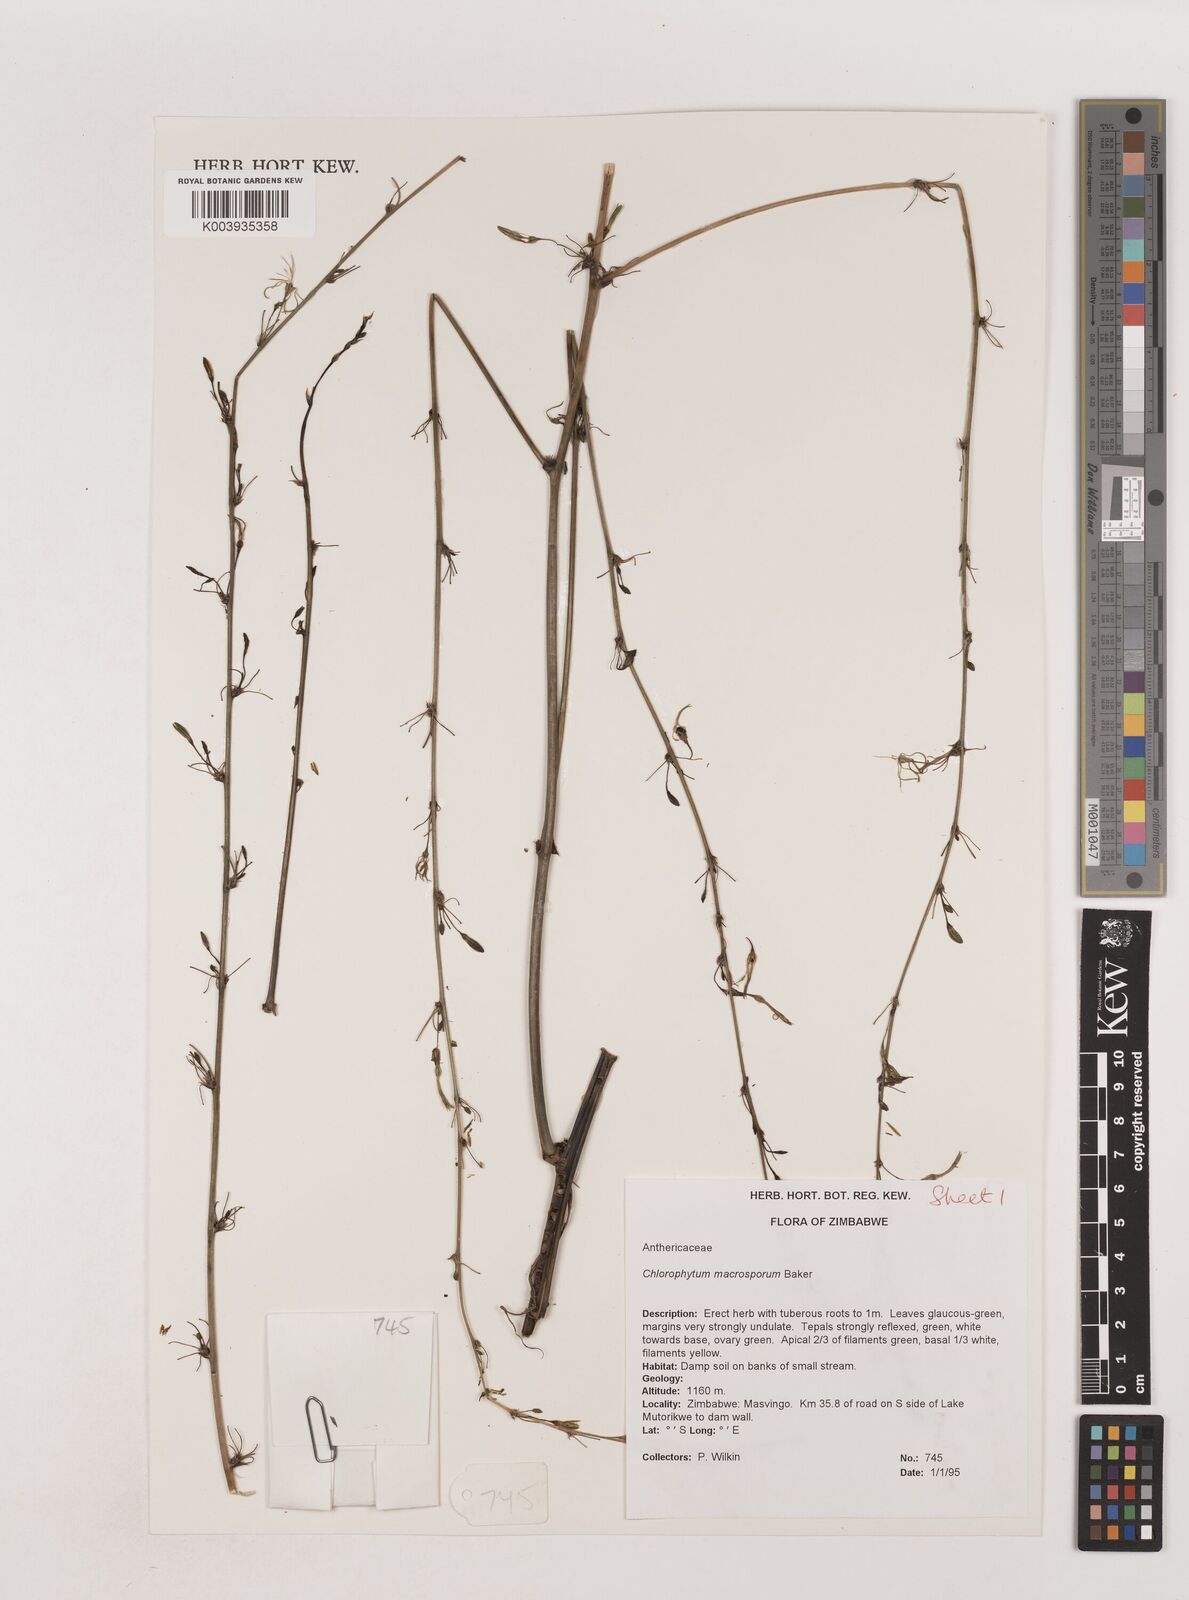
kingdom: Plantae
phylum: Tracheophyta
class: Liliopsida
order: Asparagales
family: Asparagaceae
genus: Chlorophytum
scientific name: Chlorophytum macrosporum
